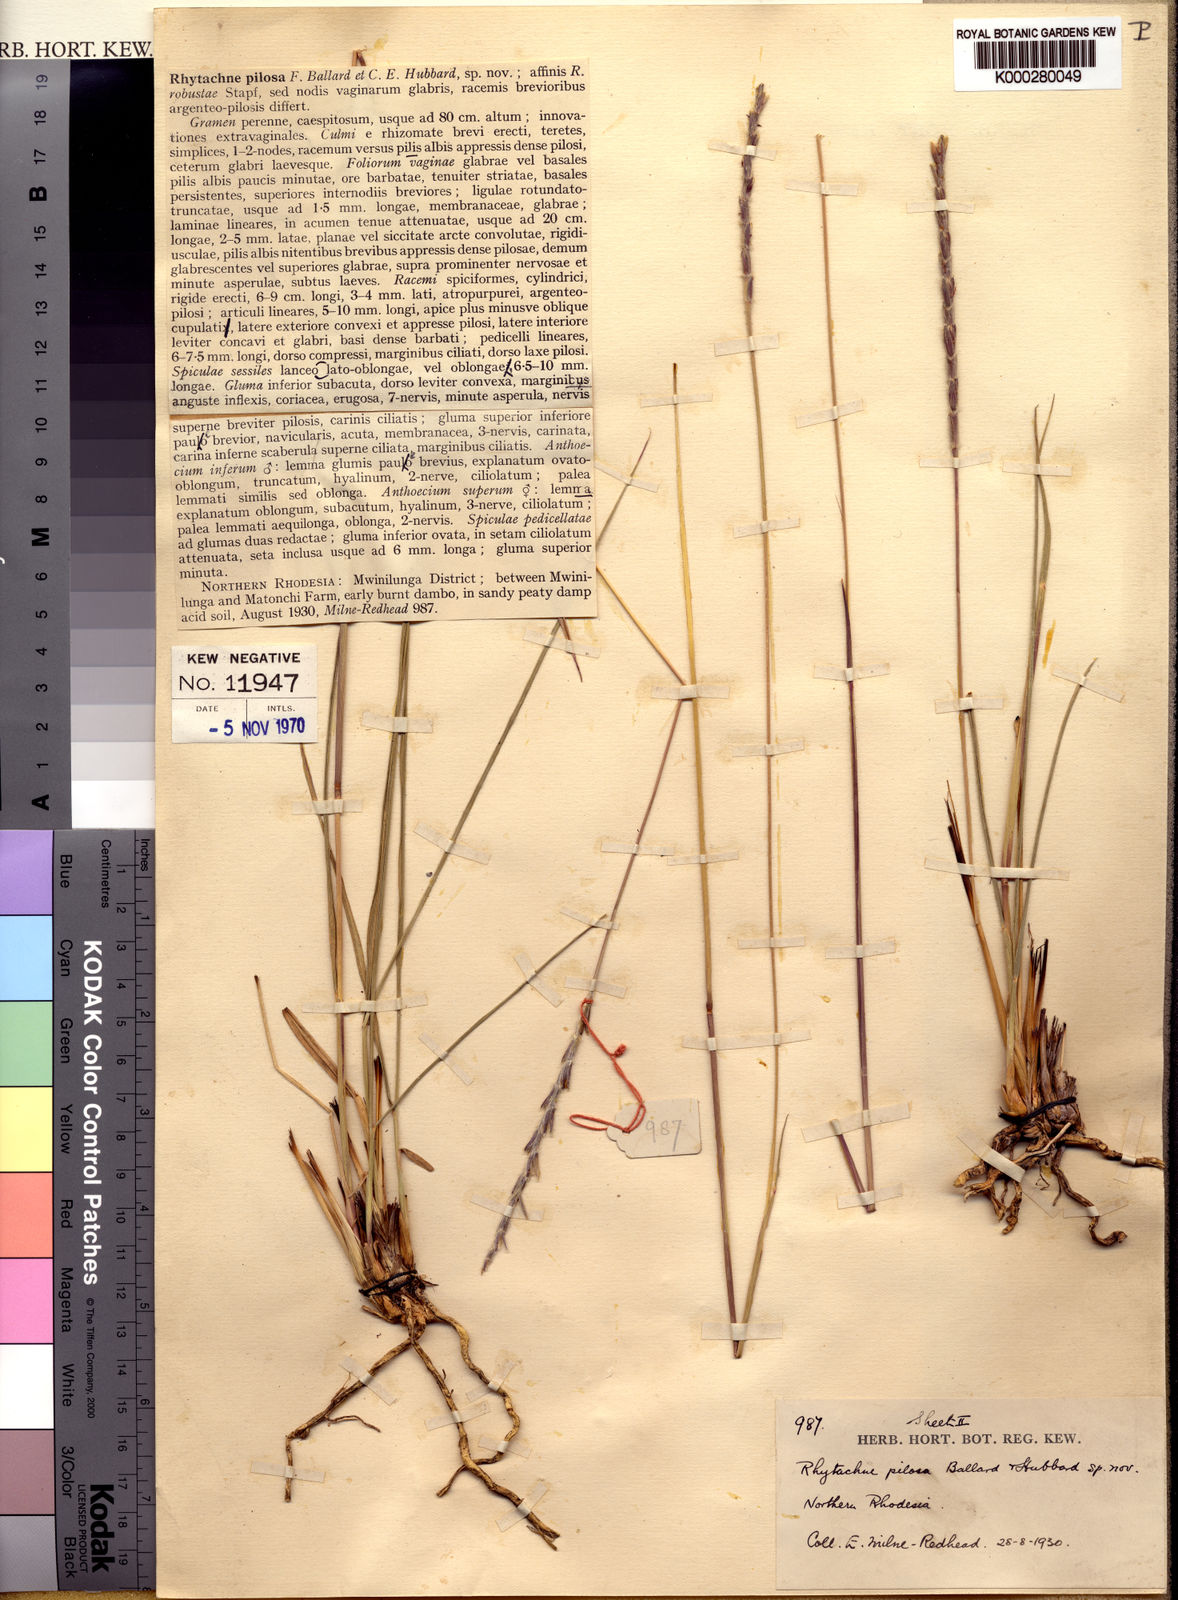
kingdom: Plantae
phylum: Tracheophyta
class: Liliopsida
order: Poales
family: Poaceae
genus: Loxodera
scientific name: Loxodera bovonei
